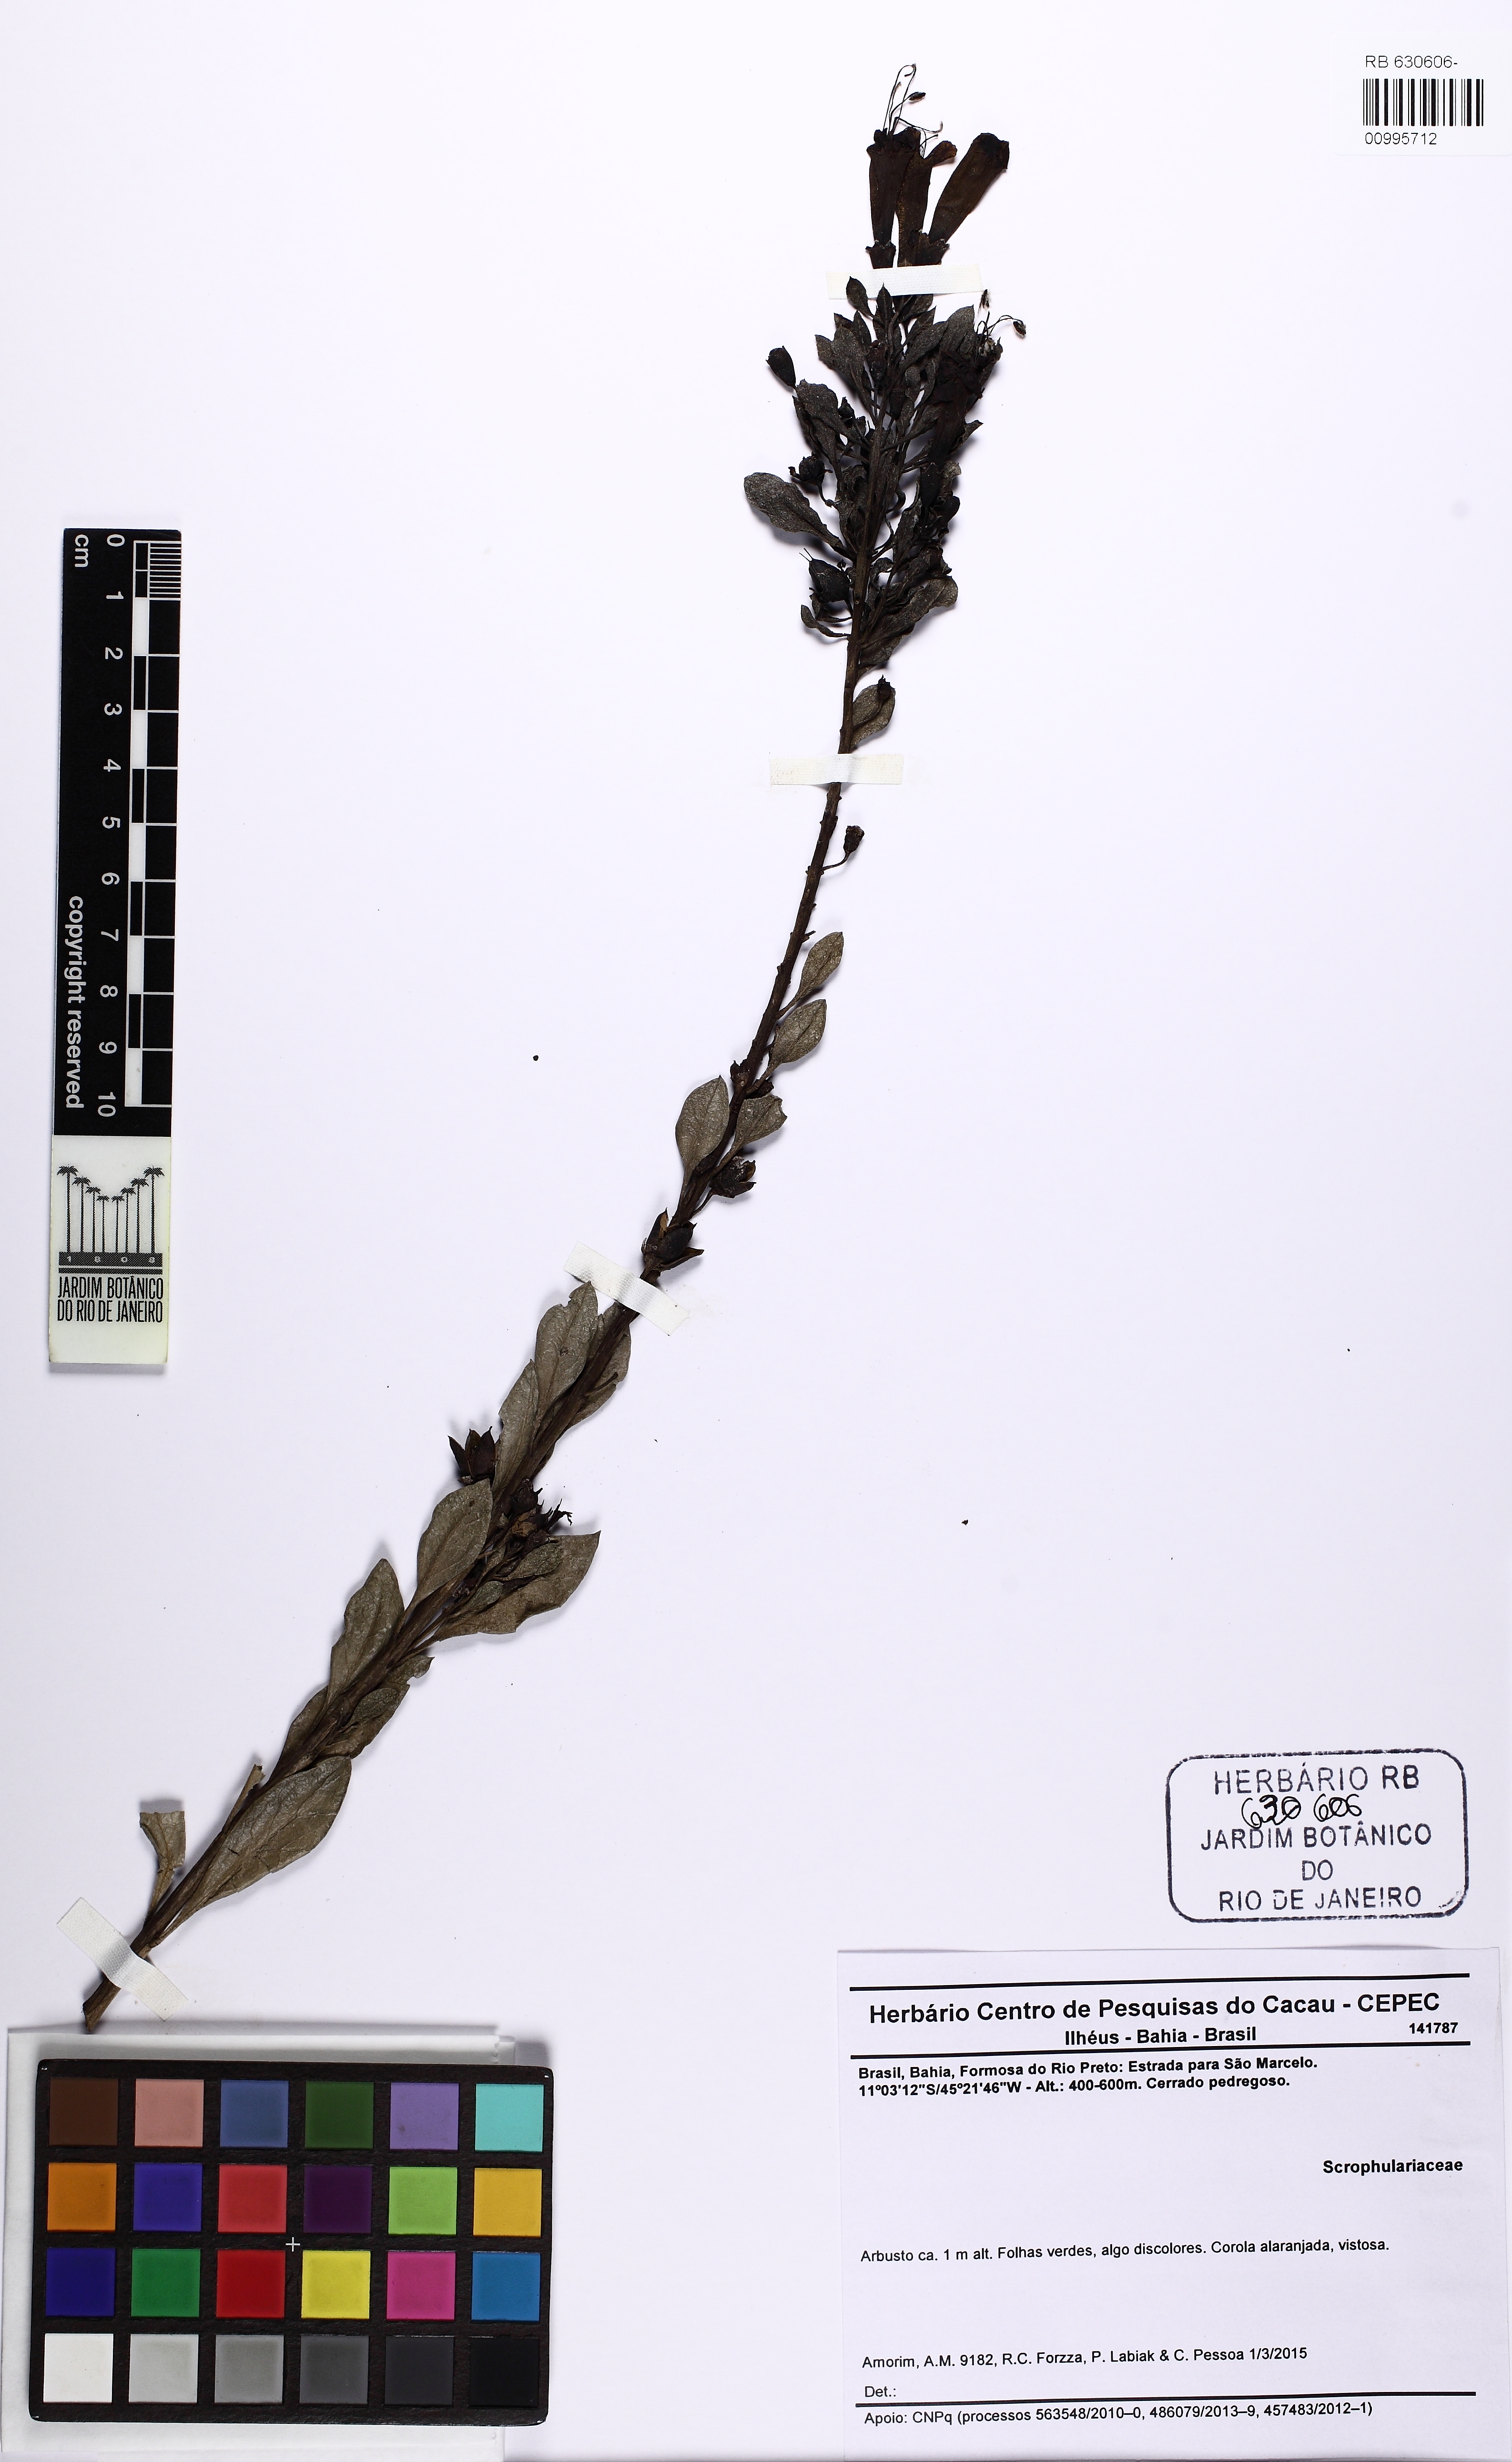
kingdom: Plantae
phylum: Tracheophyta
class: Magnoliopsida
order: Lamiales
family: Orobanchaceae
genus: Esterhazya
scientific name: Esterhazya splendida
